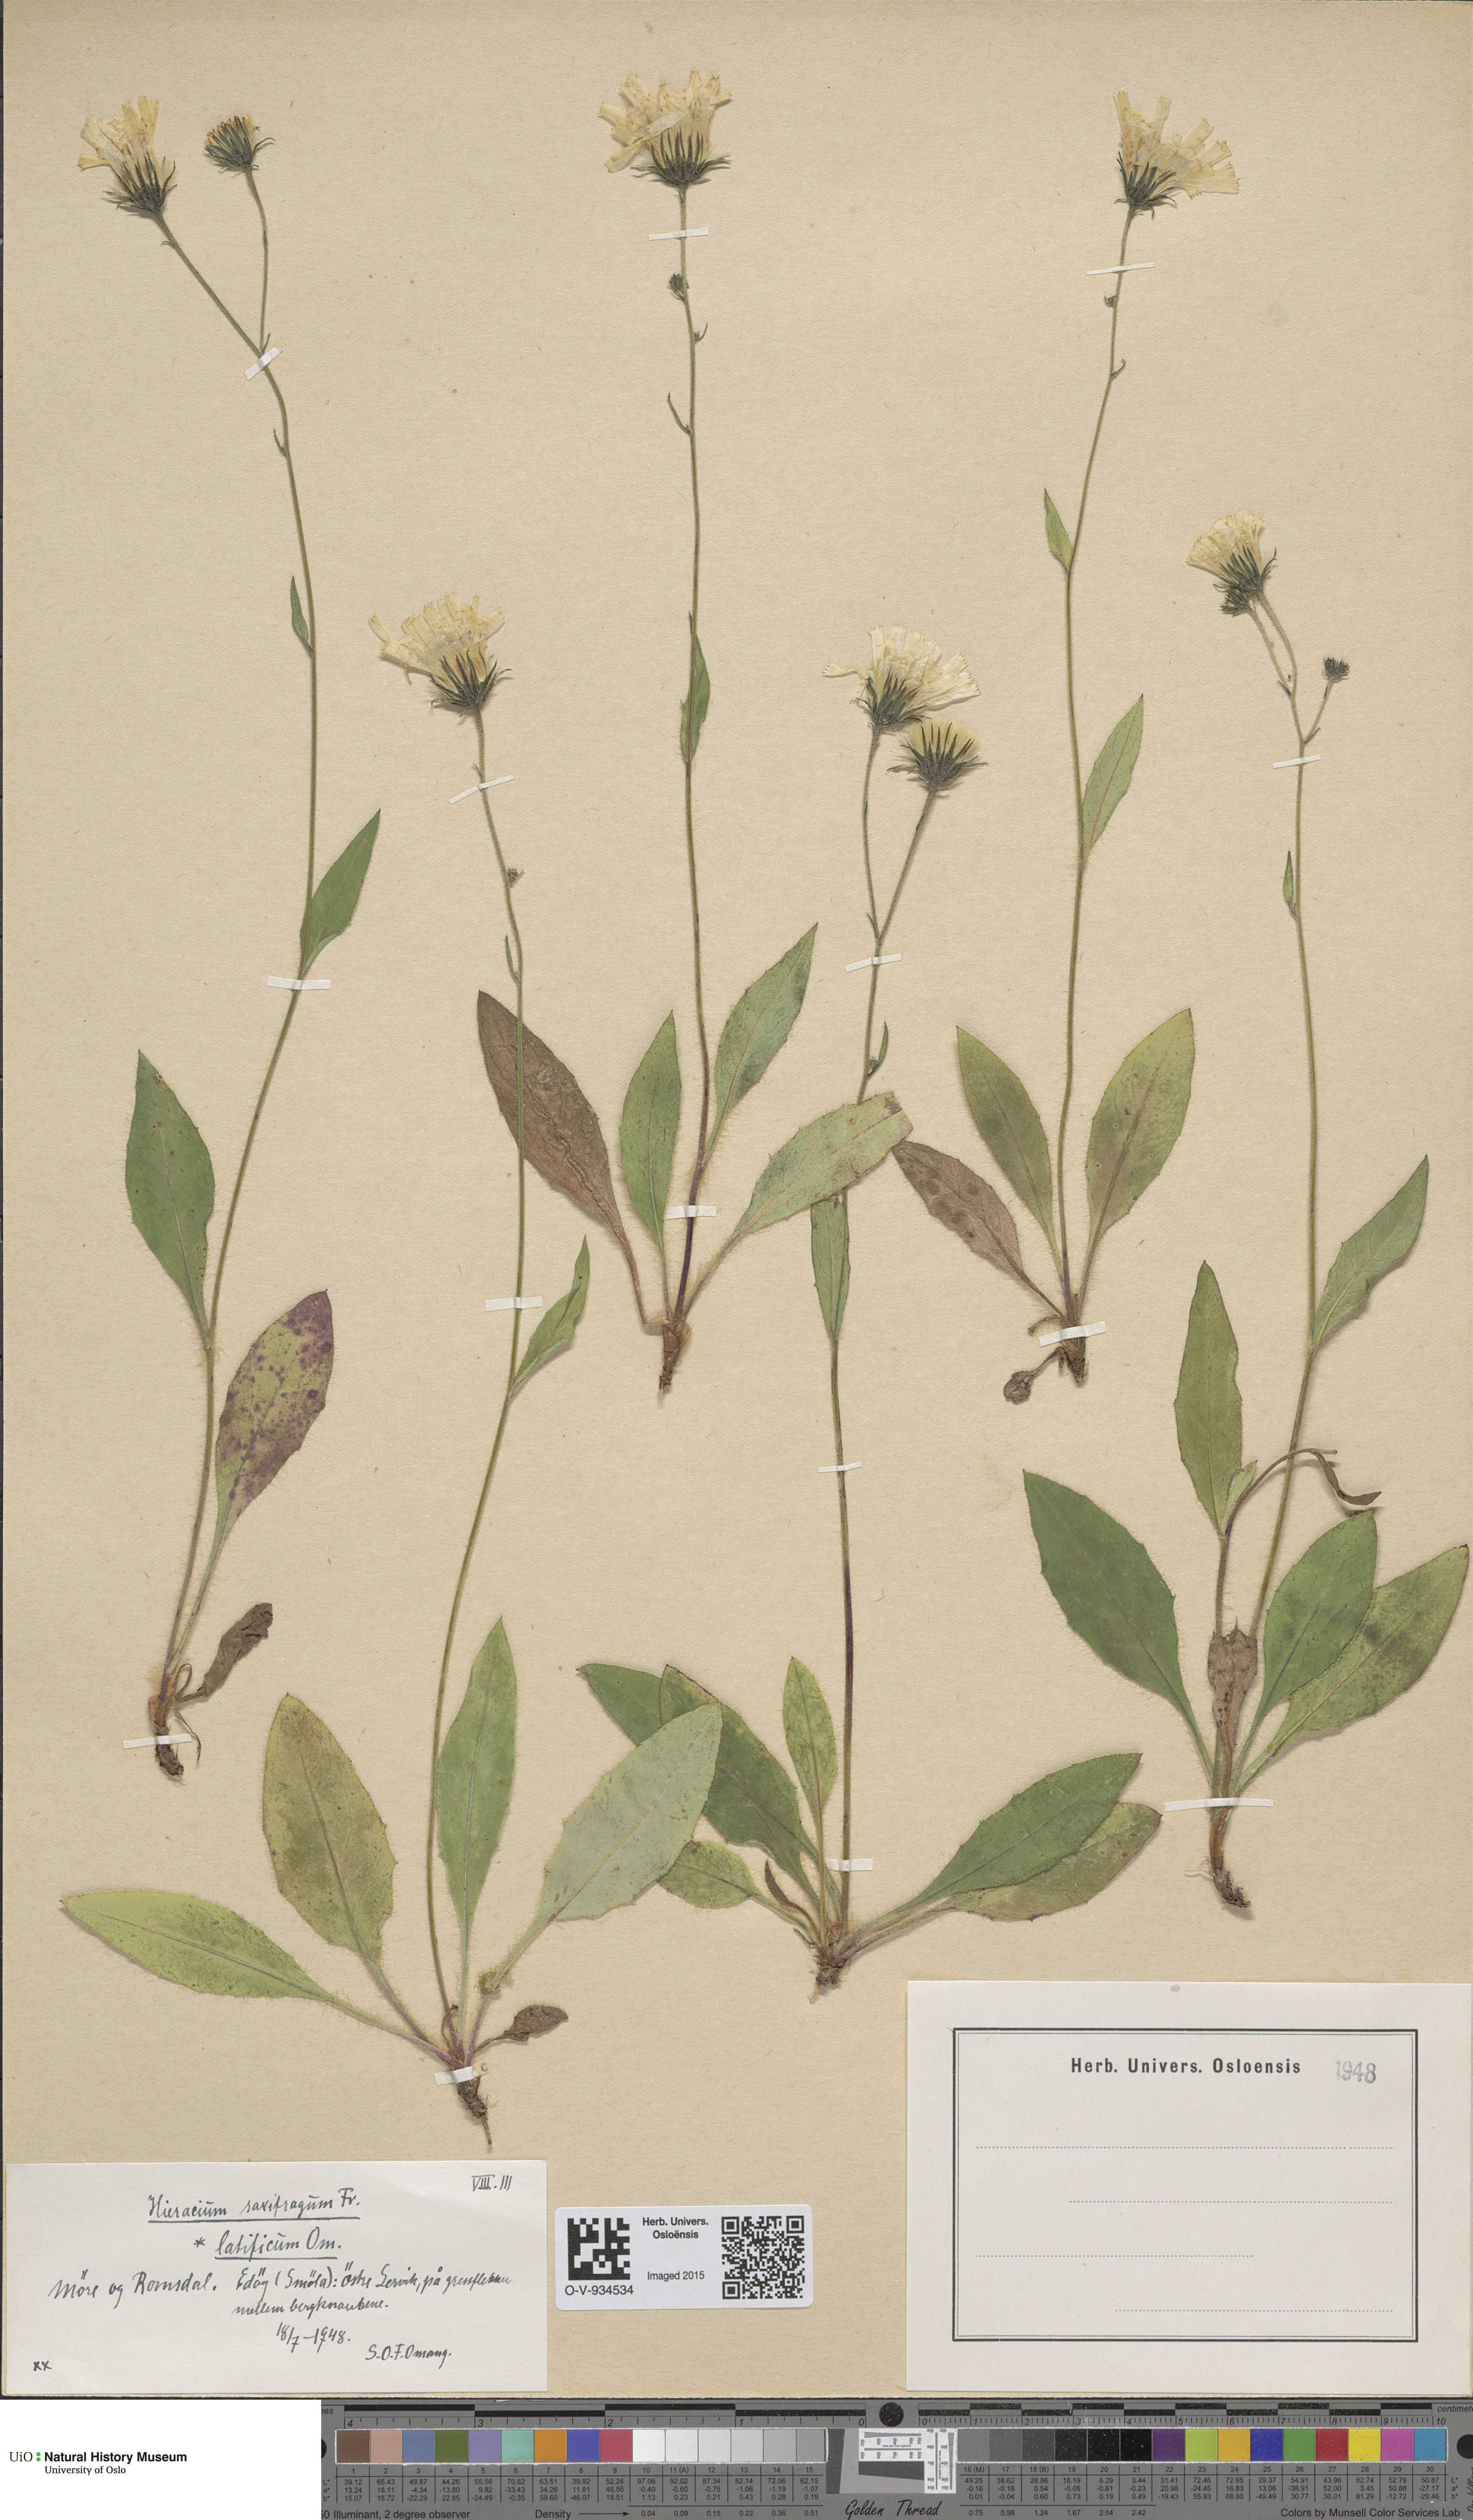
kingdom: Plantae
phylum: Tracheophyta
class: Magnoliopsida
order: Asterales
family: Asteraceae
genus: Hieracium
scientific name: Hieracium saxifragum
